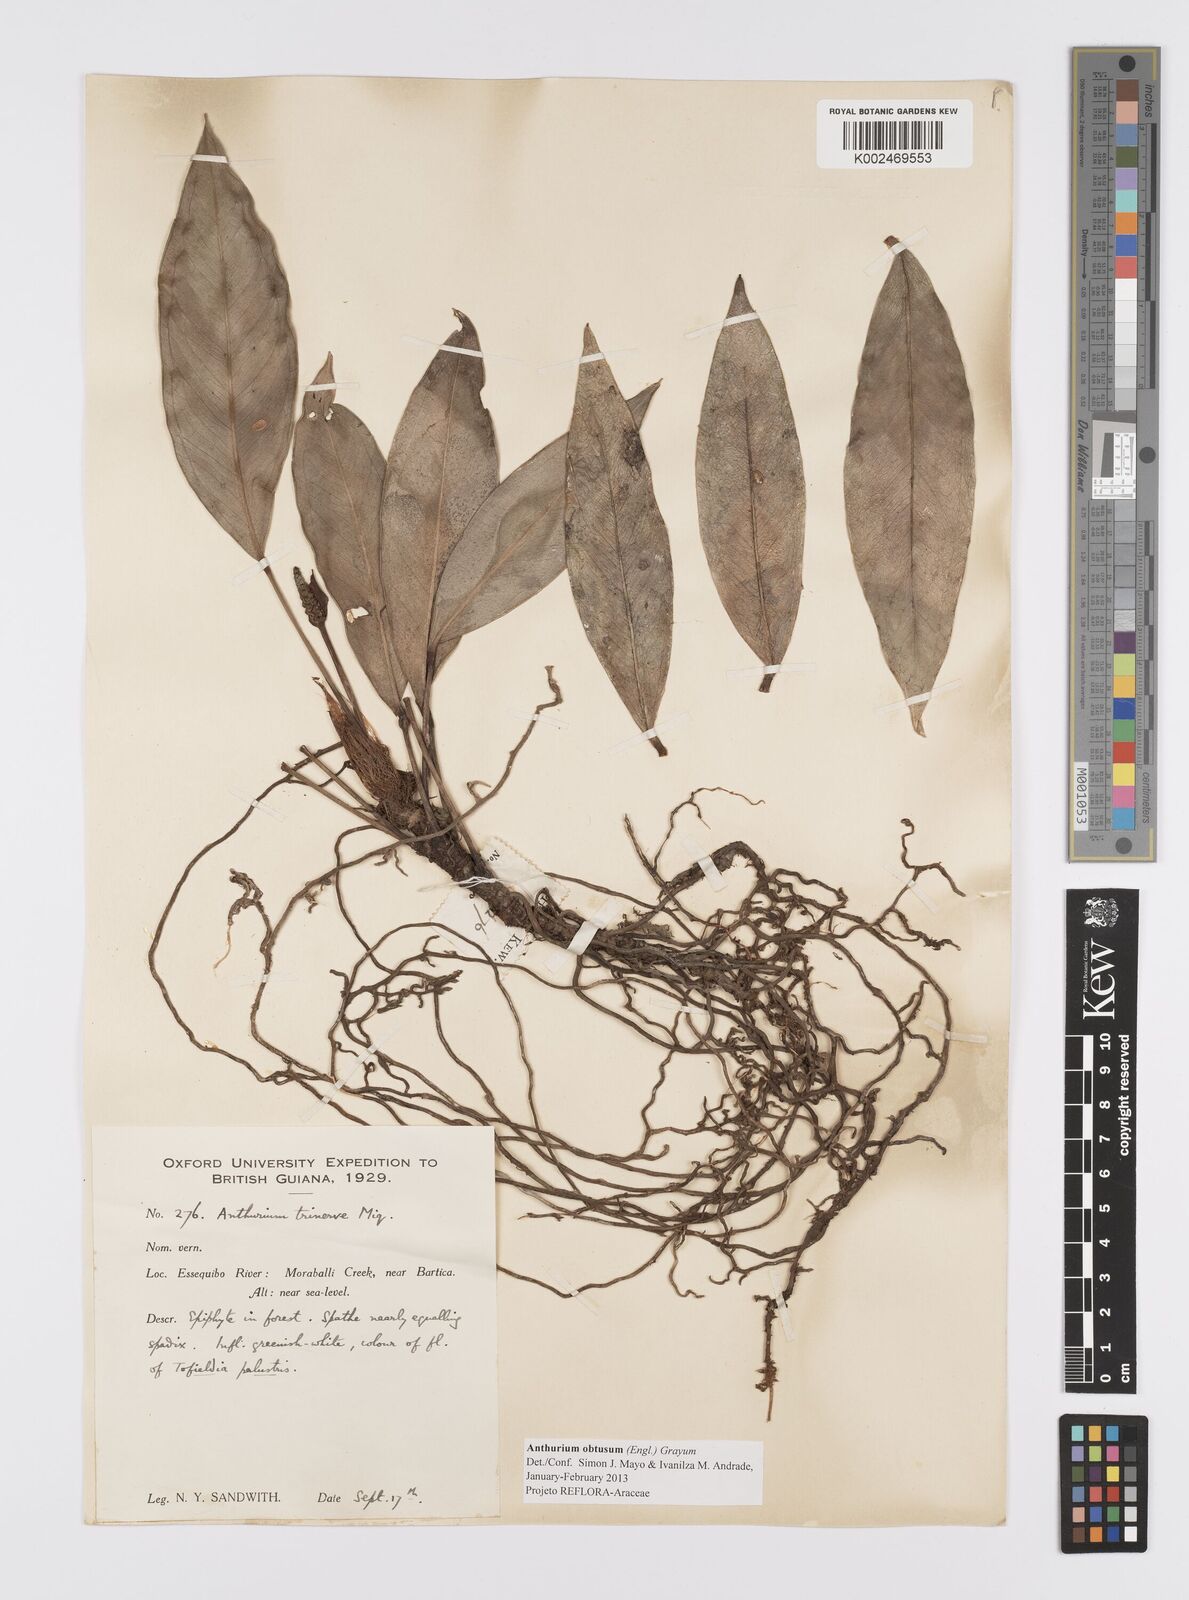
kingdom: Plantae
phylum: Tracheophyta
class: Liliopsida
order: Alismatales
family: Araceae
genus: Anthurium
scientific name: Anthurium obtusum
